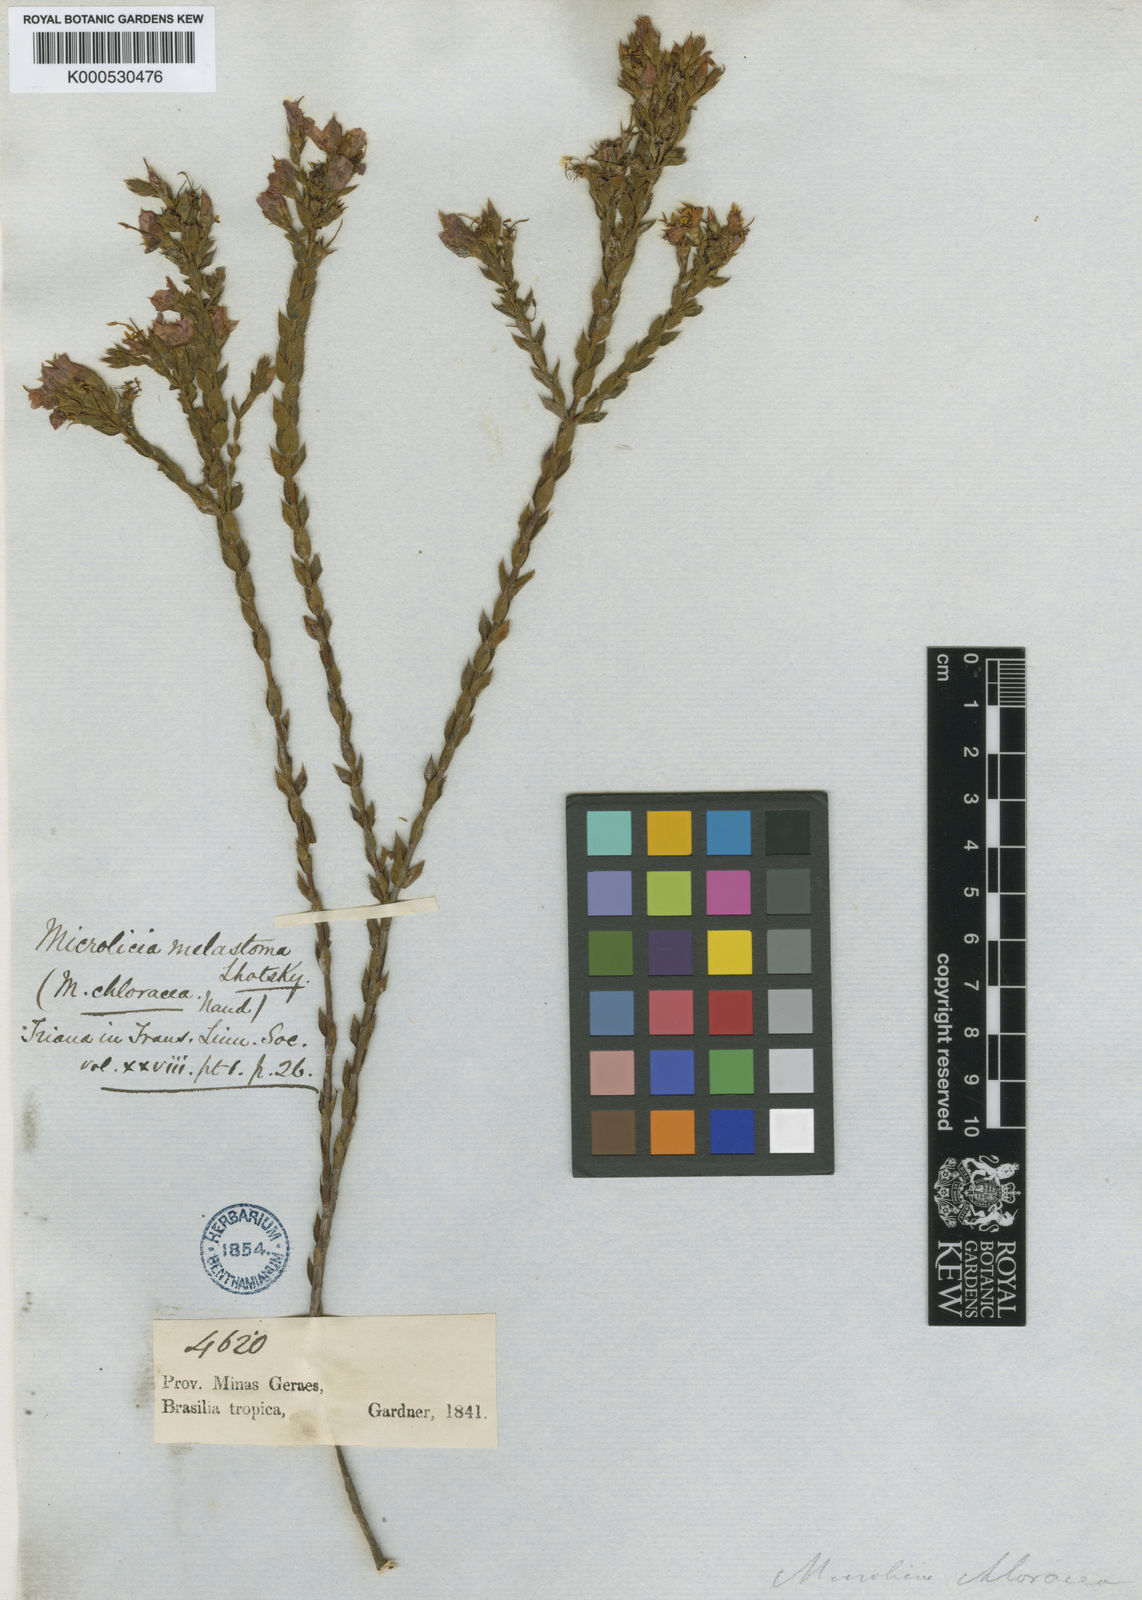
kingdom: Plantae
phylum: Tracheophyta
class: Magnoliopsida
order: Myrtales
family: Melastomataceae
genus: Microlicia
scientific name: Microlicia
